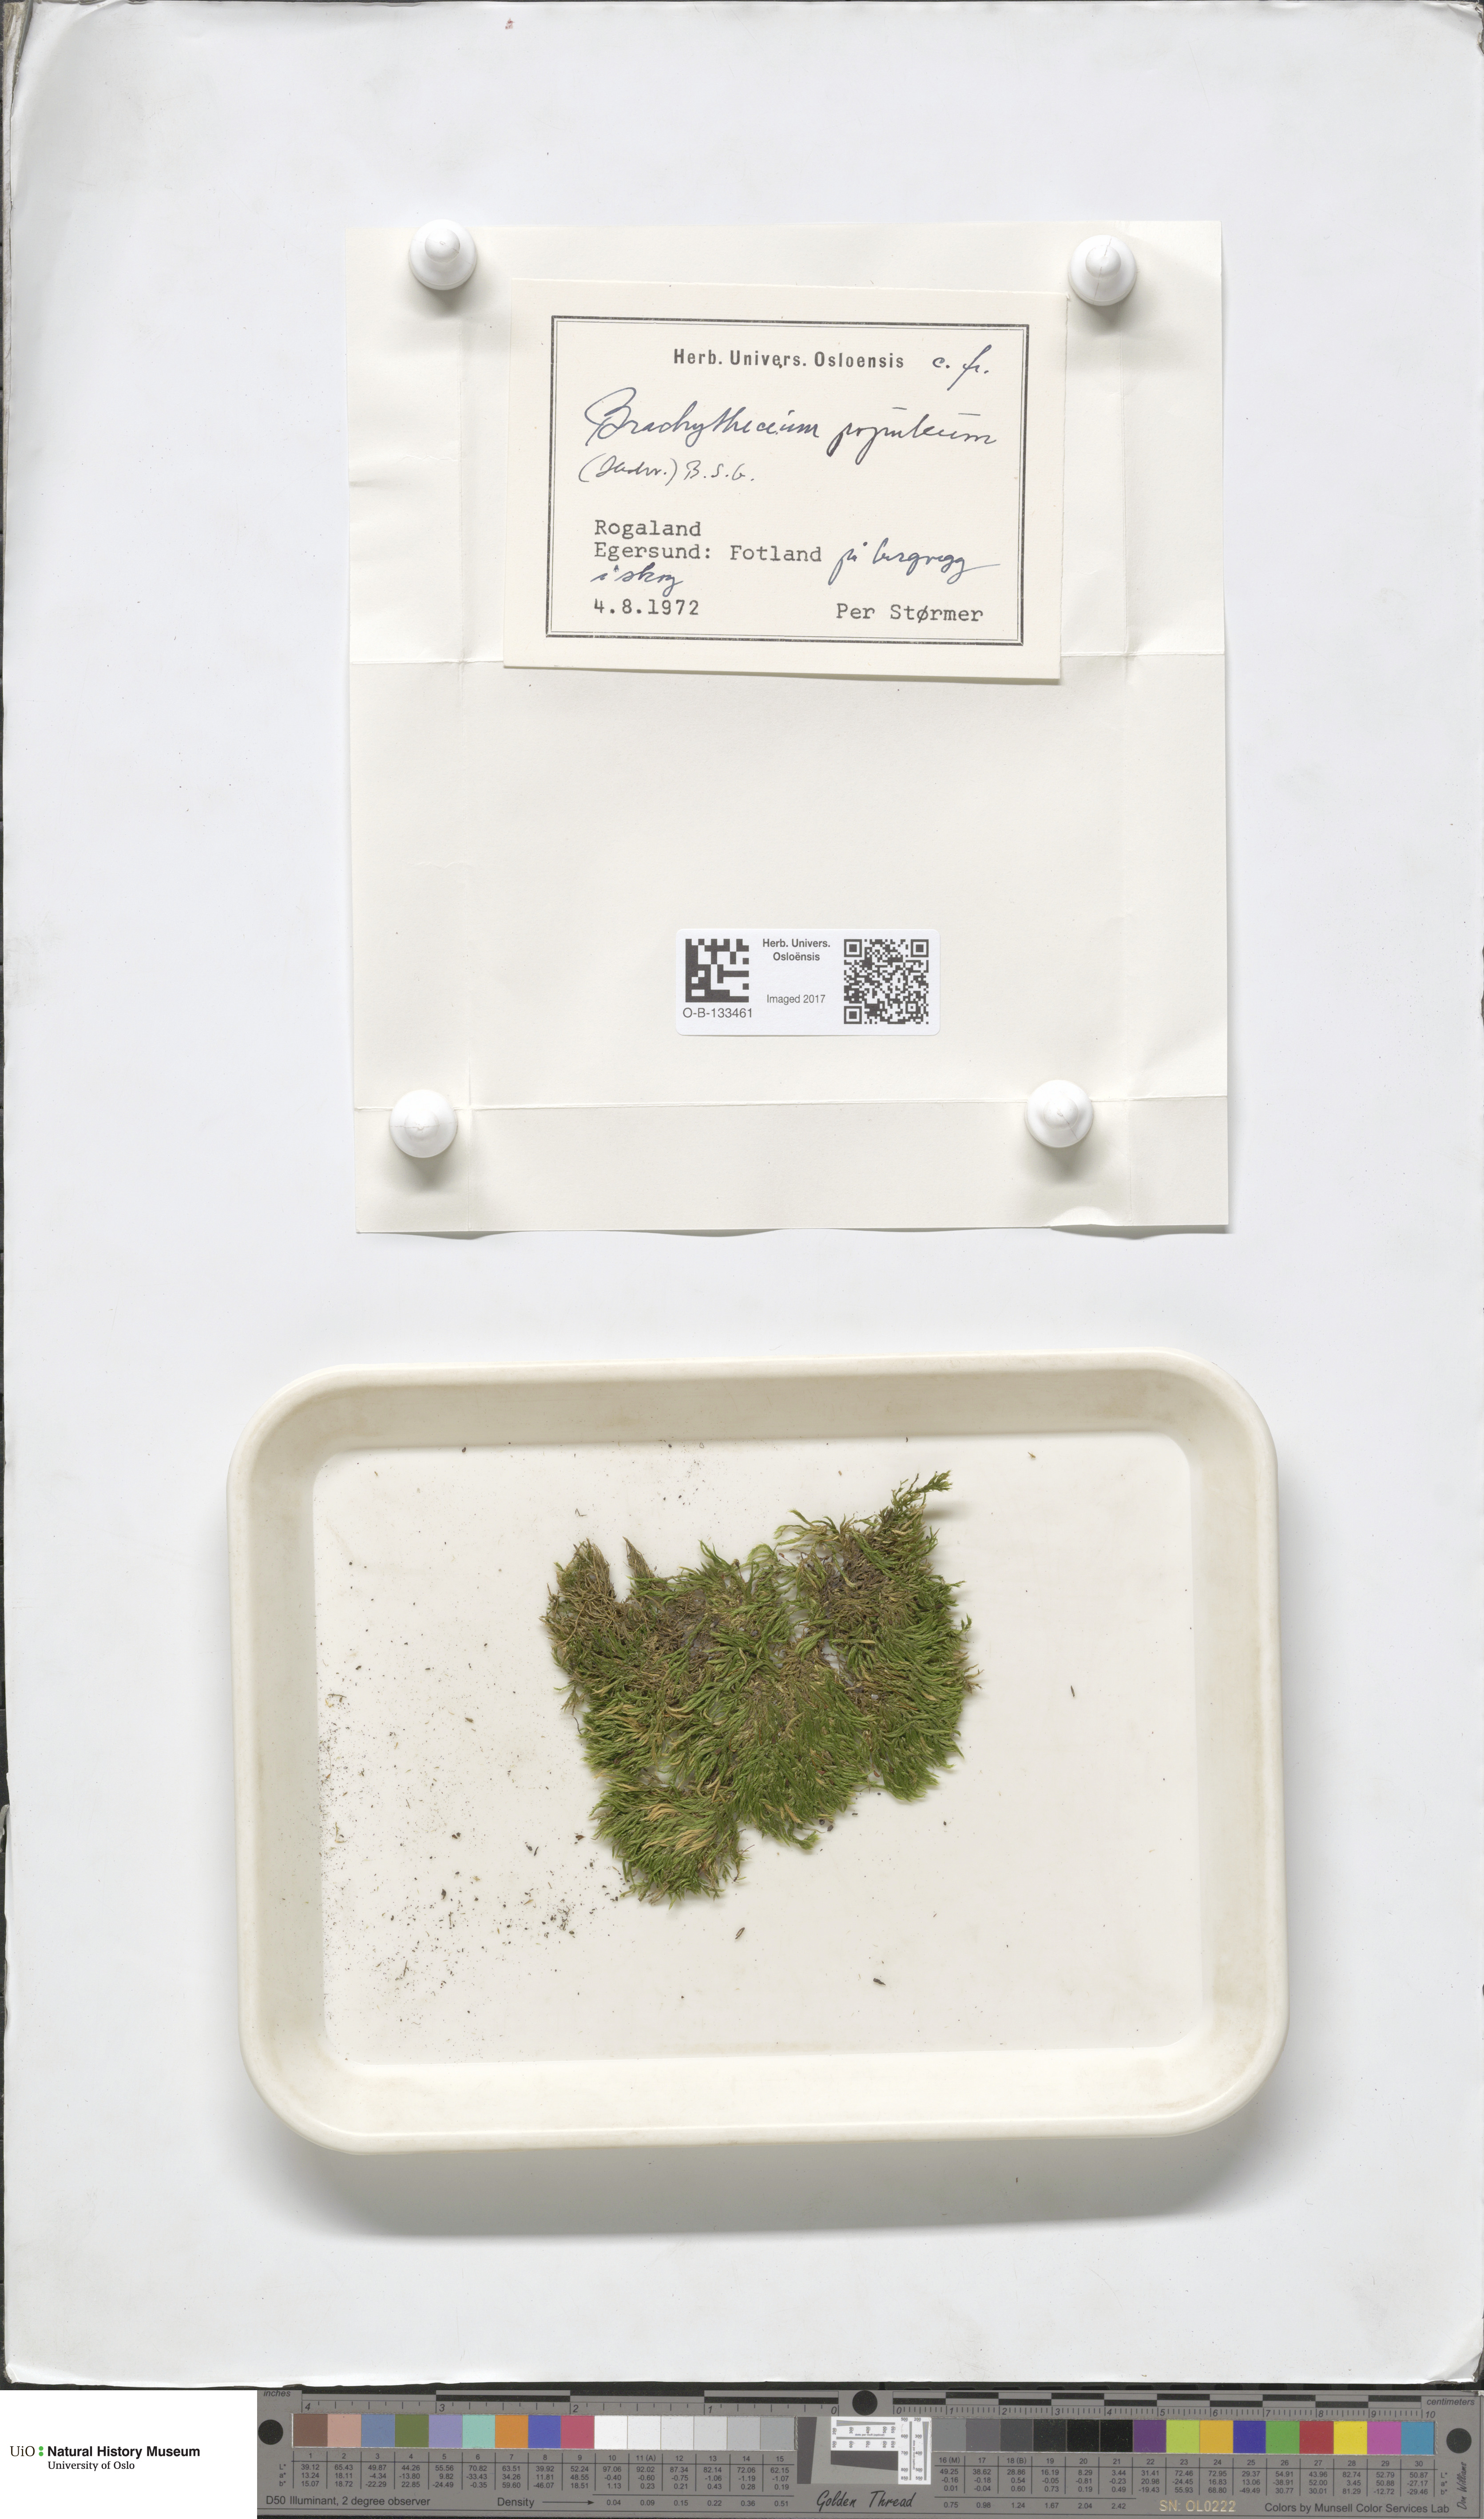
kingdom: Plantae
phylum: Bryophyta
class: Bryopsida
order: Hypnales
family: Brachytheciaceae
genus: Sciuro-hypnum
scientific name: Sciuro-hypnum plumosum
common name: Rusty feather-moss
